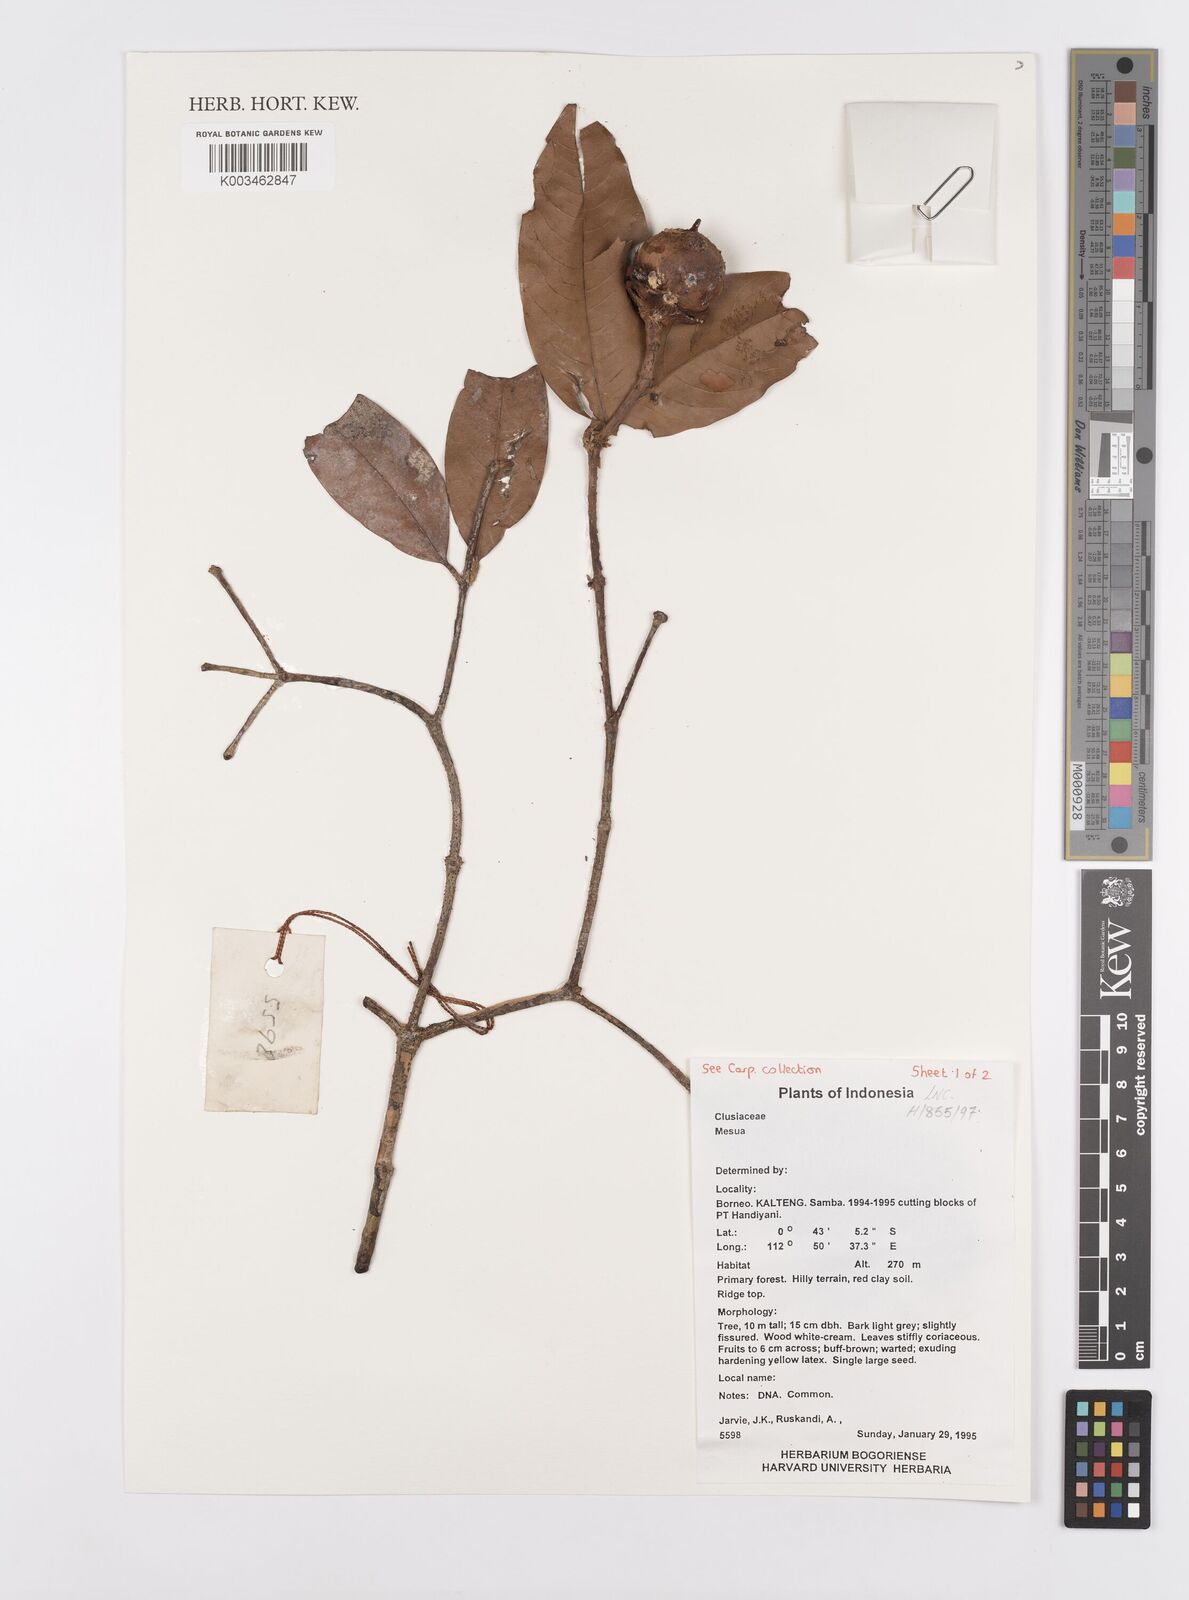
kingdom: Plantae
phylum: Tracheophyta
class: Magnoliopsida
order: Malpighiales
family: Calophyllaceae
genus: Mesua
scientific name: Mesua
